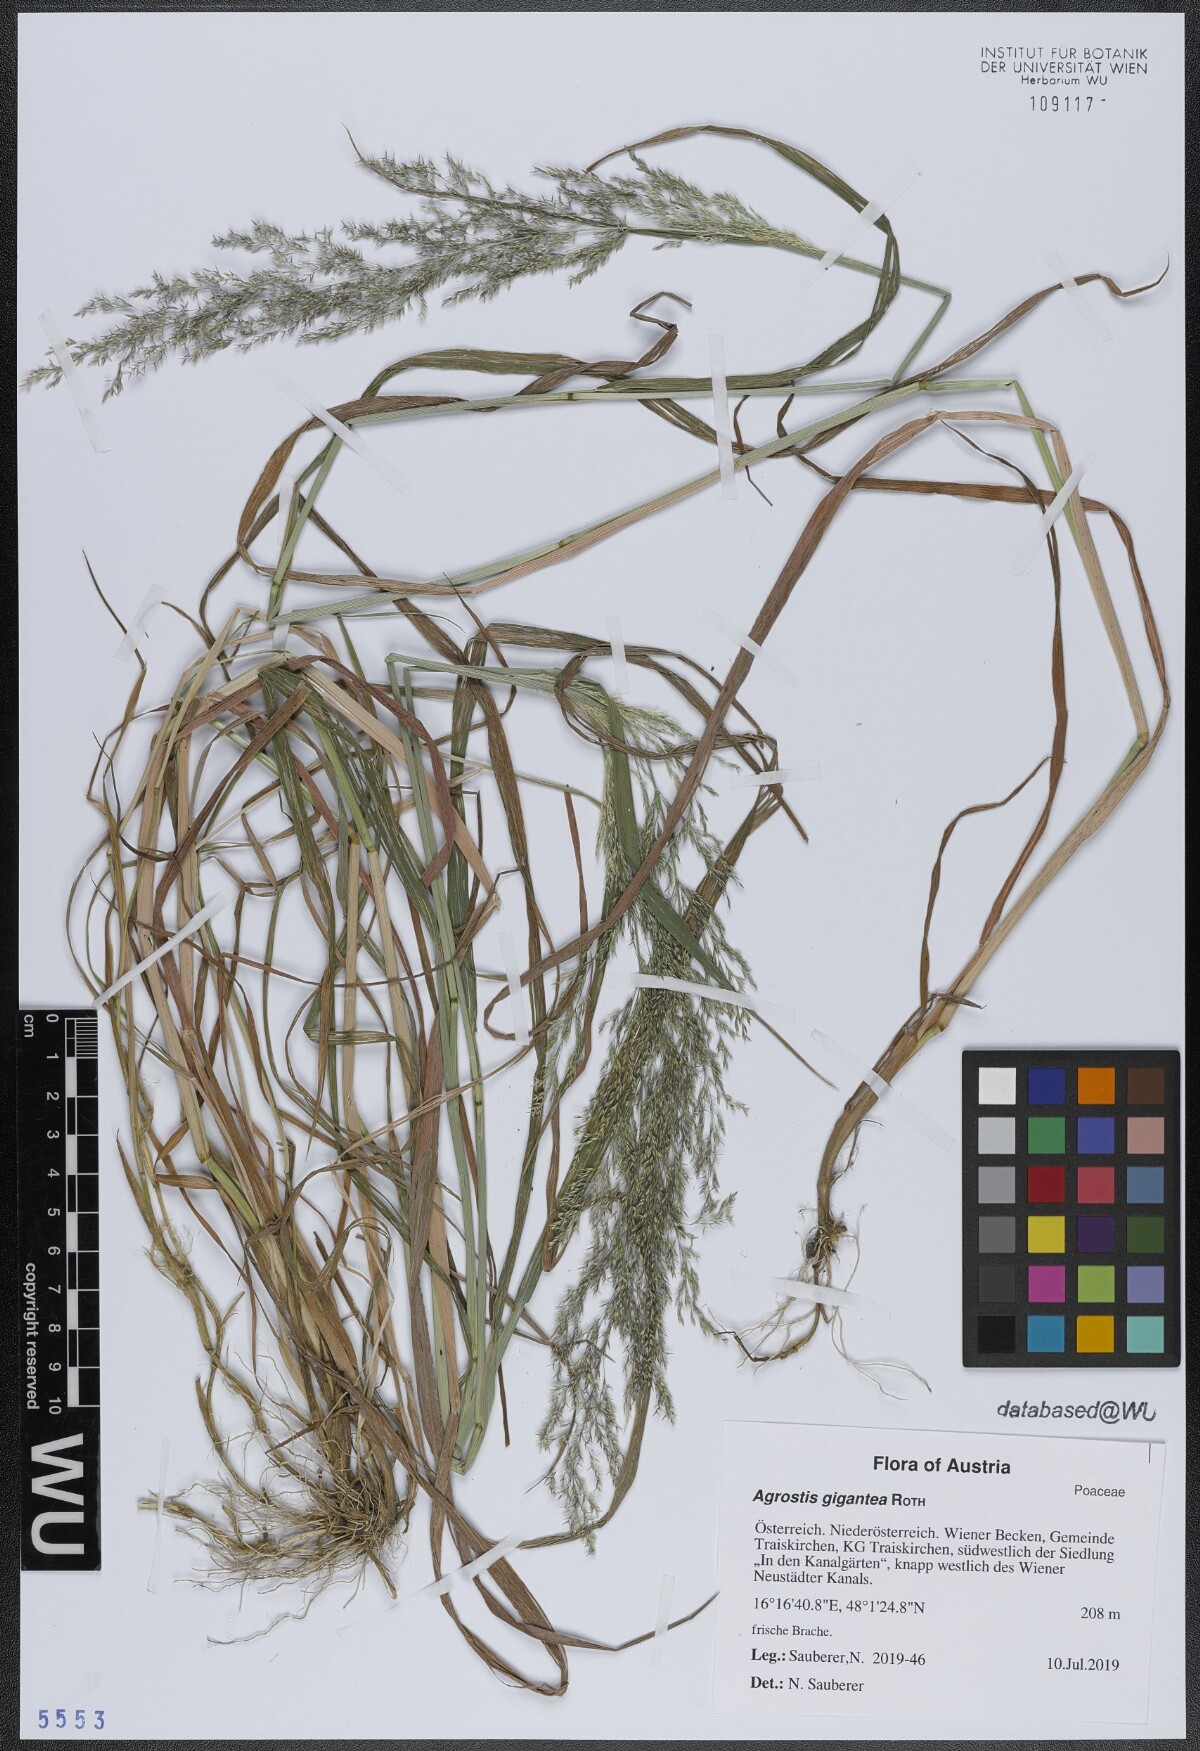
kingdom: Plantae
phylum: Tracheophyta
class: Liliopsida
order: Poales
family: Poaceae
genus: Agrostis
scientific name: Agrostis gigantea
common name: Black bent
